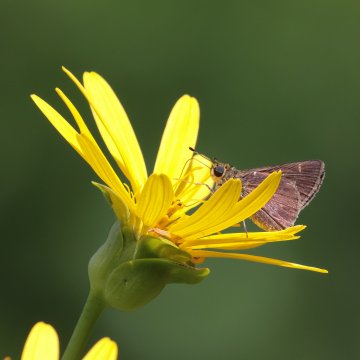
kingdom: Animalia
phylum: Arthropoda
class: Insecta
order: Lepidoptera
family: Hesperiidae
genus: Vernia
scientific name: Vernia verna
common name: Little Glassywing
